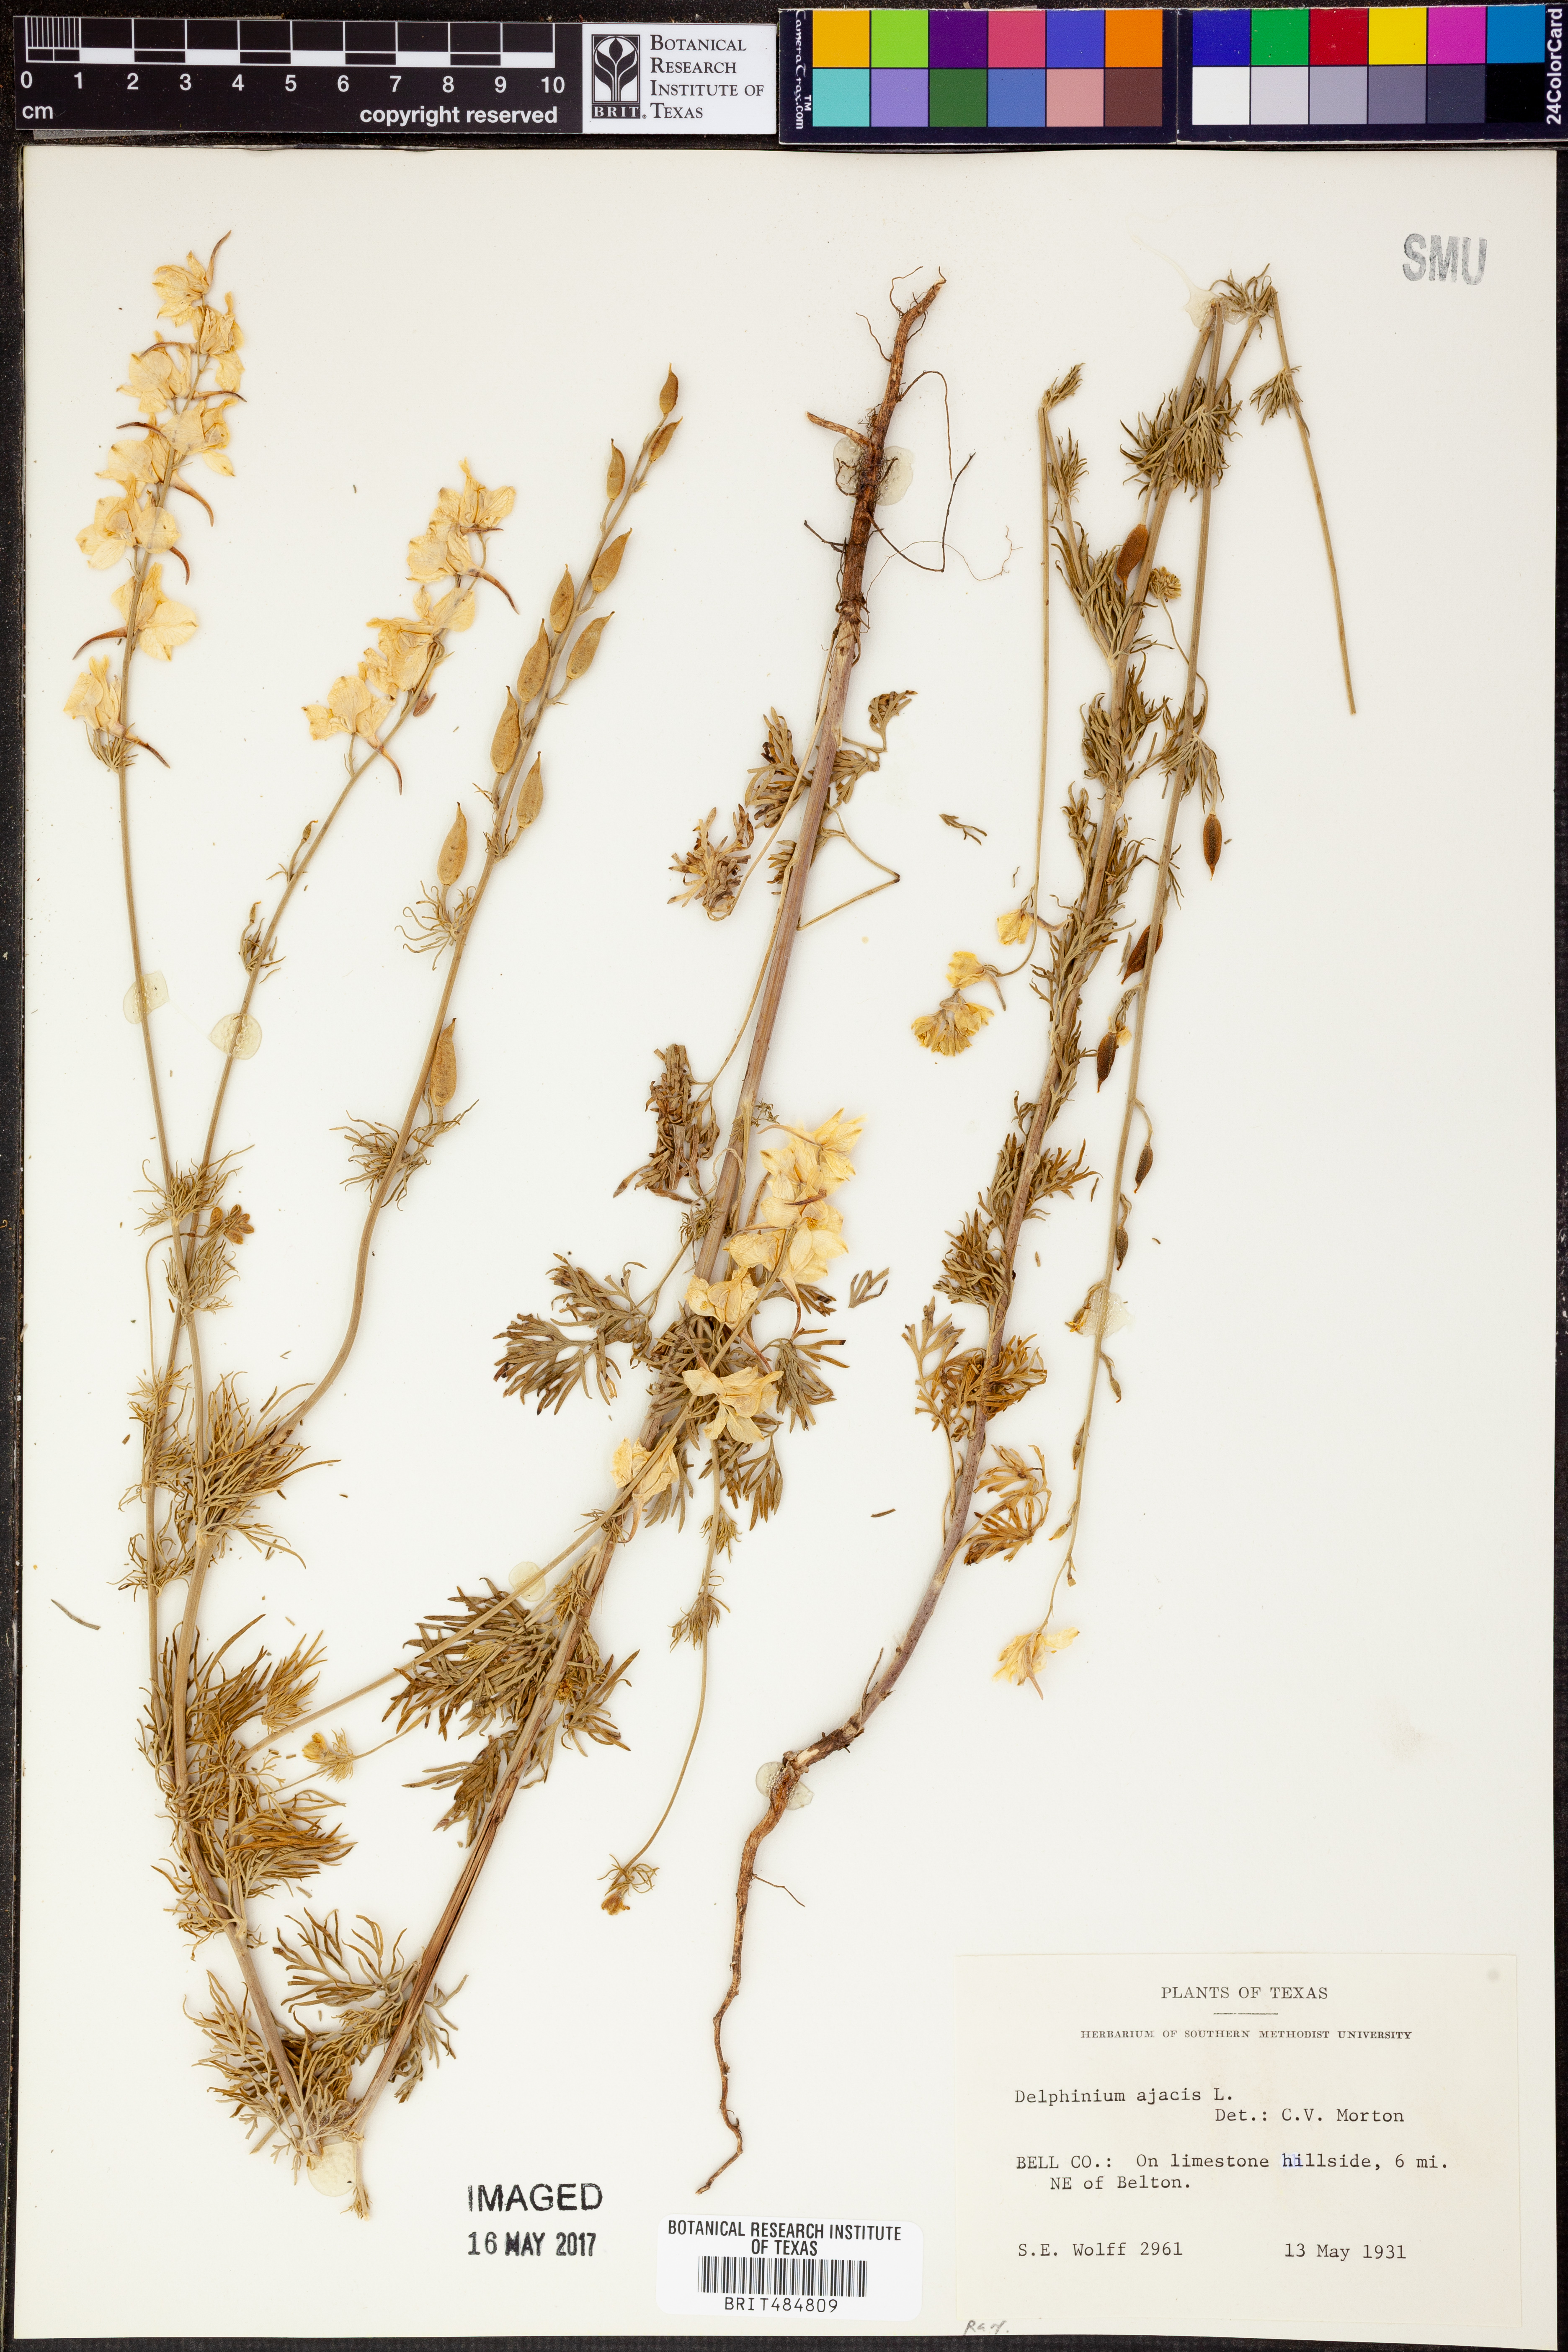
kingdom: Plantae
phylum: Tracheophyta
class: Magnoliopsida
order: Ranunculales
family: Ranunculaceae
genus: Delphinium
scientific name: Delphinium ajacis
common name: Doubtful knight's-spur
